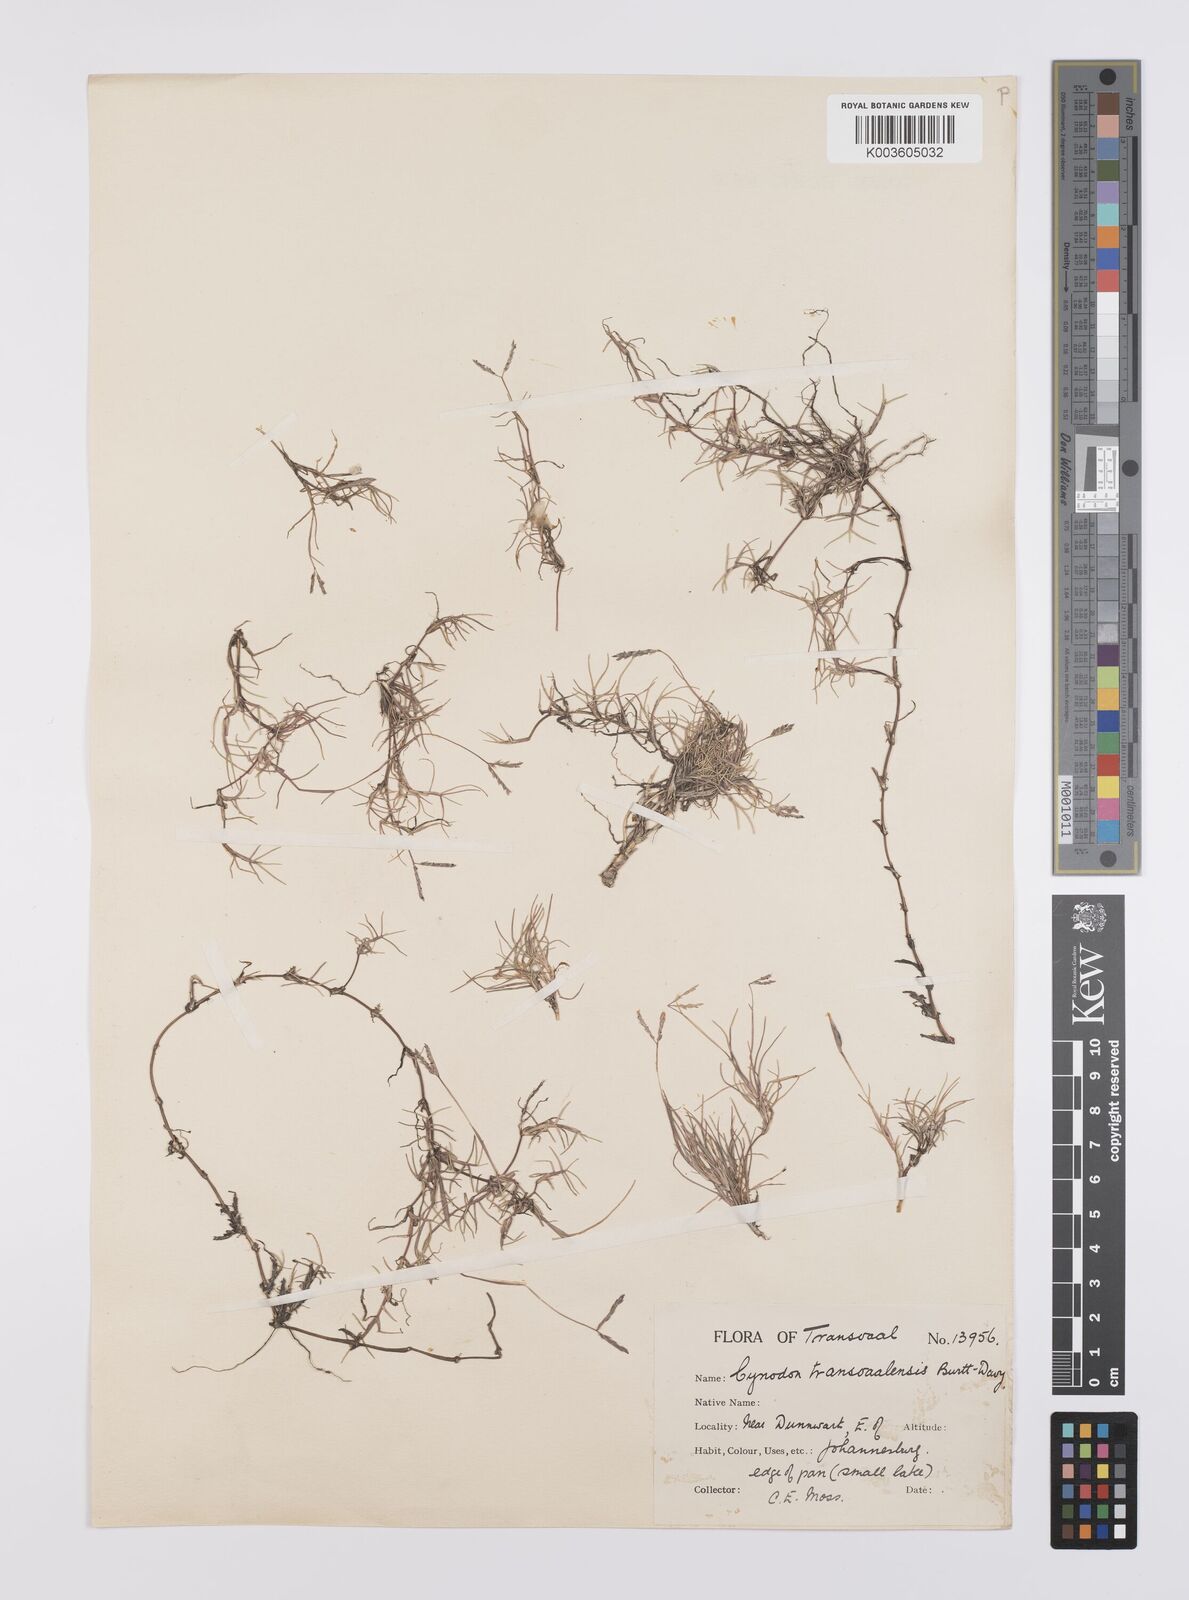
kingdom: Plantae
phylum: Tracheophyta
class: Liliopsida
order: Poales
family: Poaceae
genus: Cynodon
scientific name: Cynodon transvaalensis
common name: African bermuda grass
